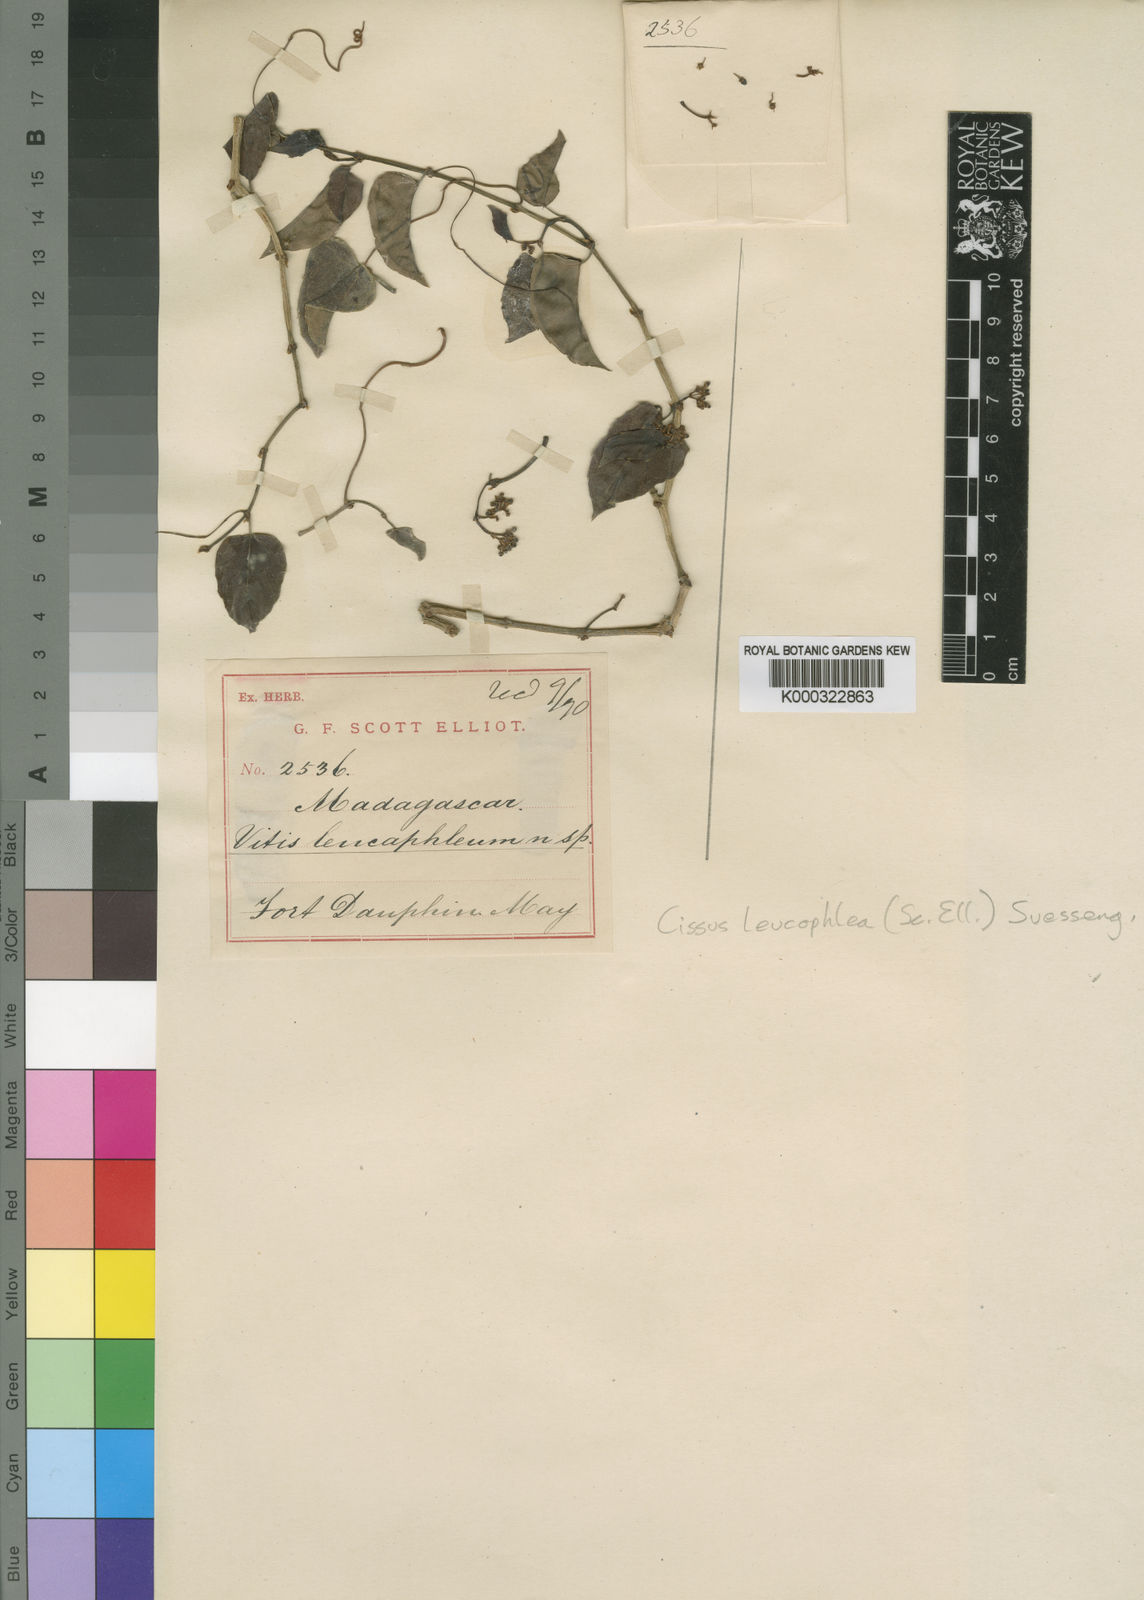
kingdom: Plantae
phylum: Tracheophyta
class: Magnoliopsida
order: Vitales
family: Vitaceae
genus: Cissus
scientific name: Cissus leucophlea
